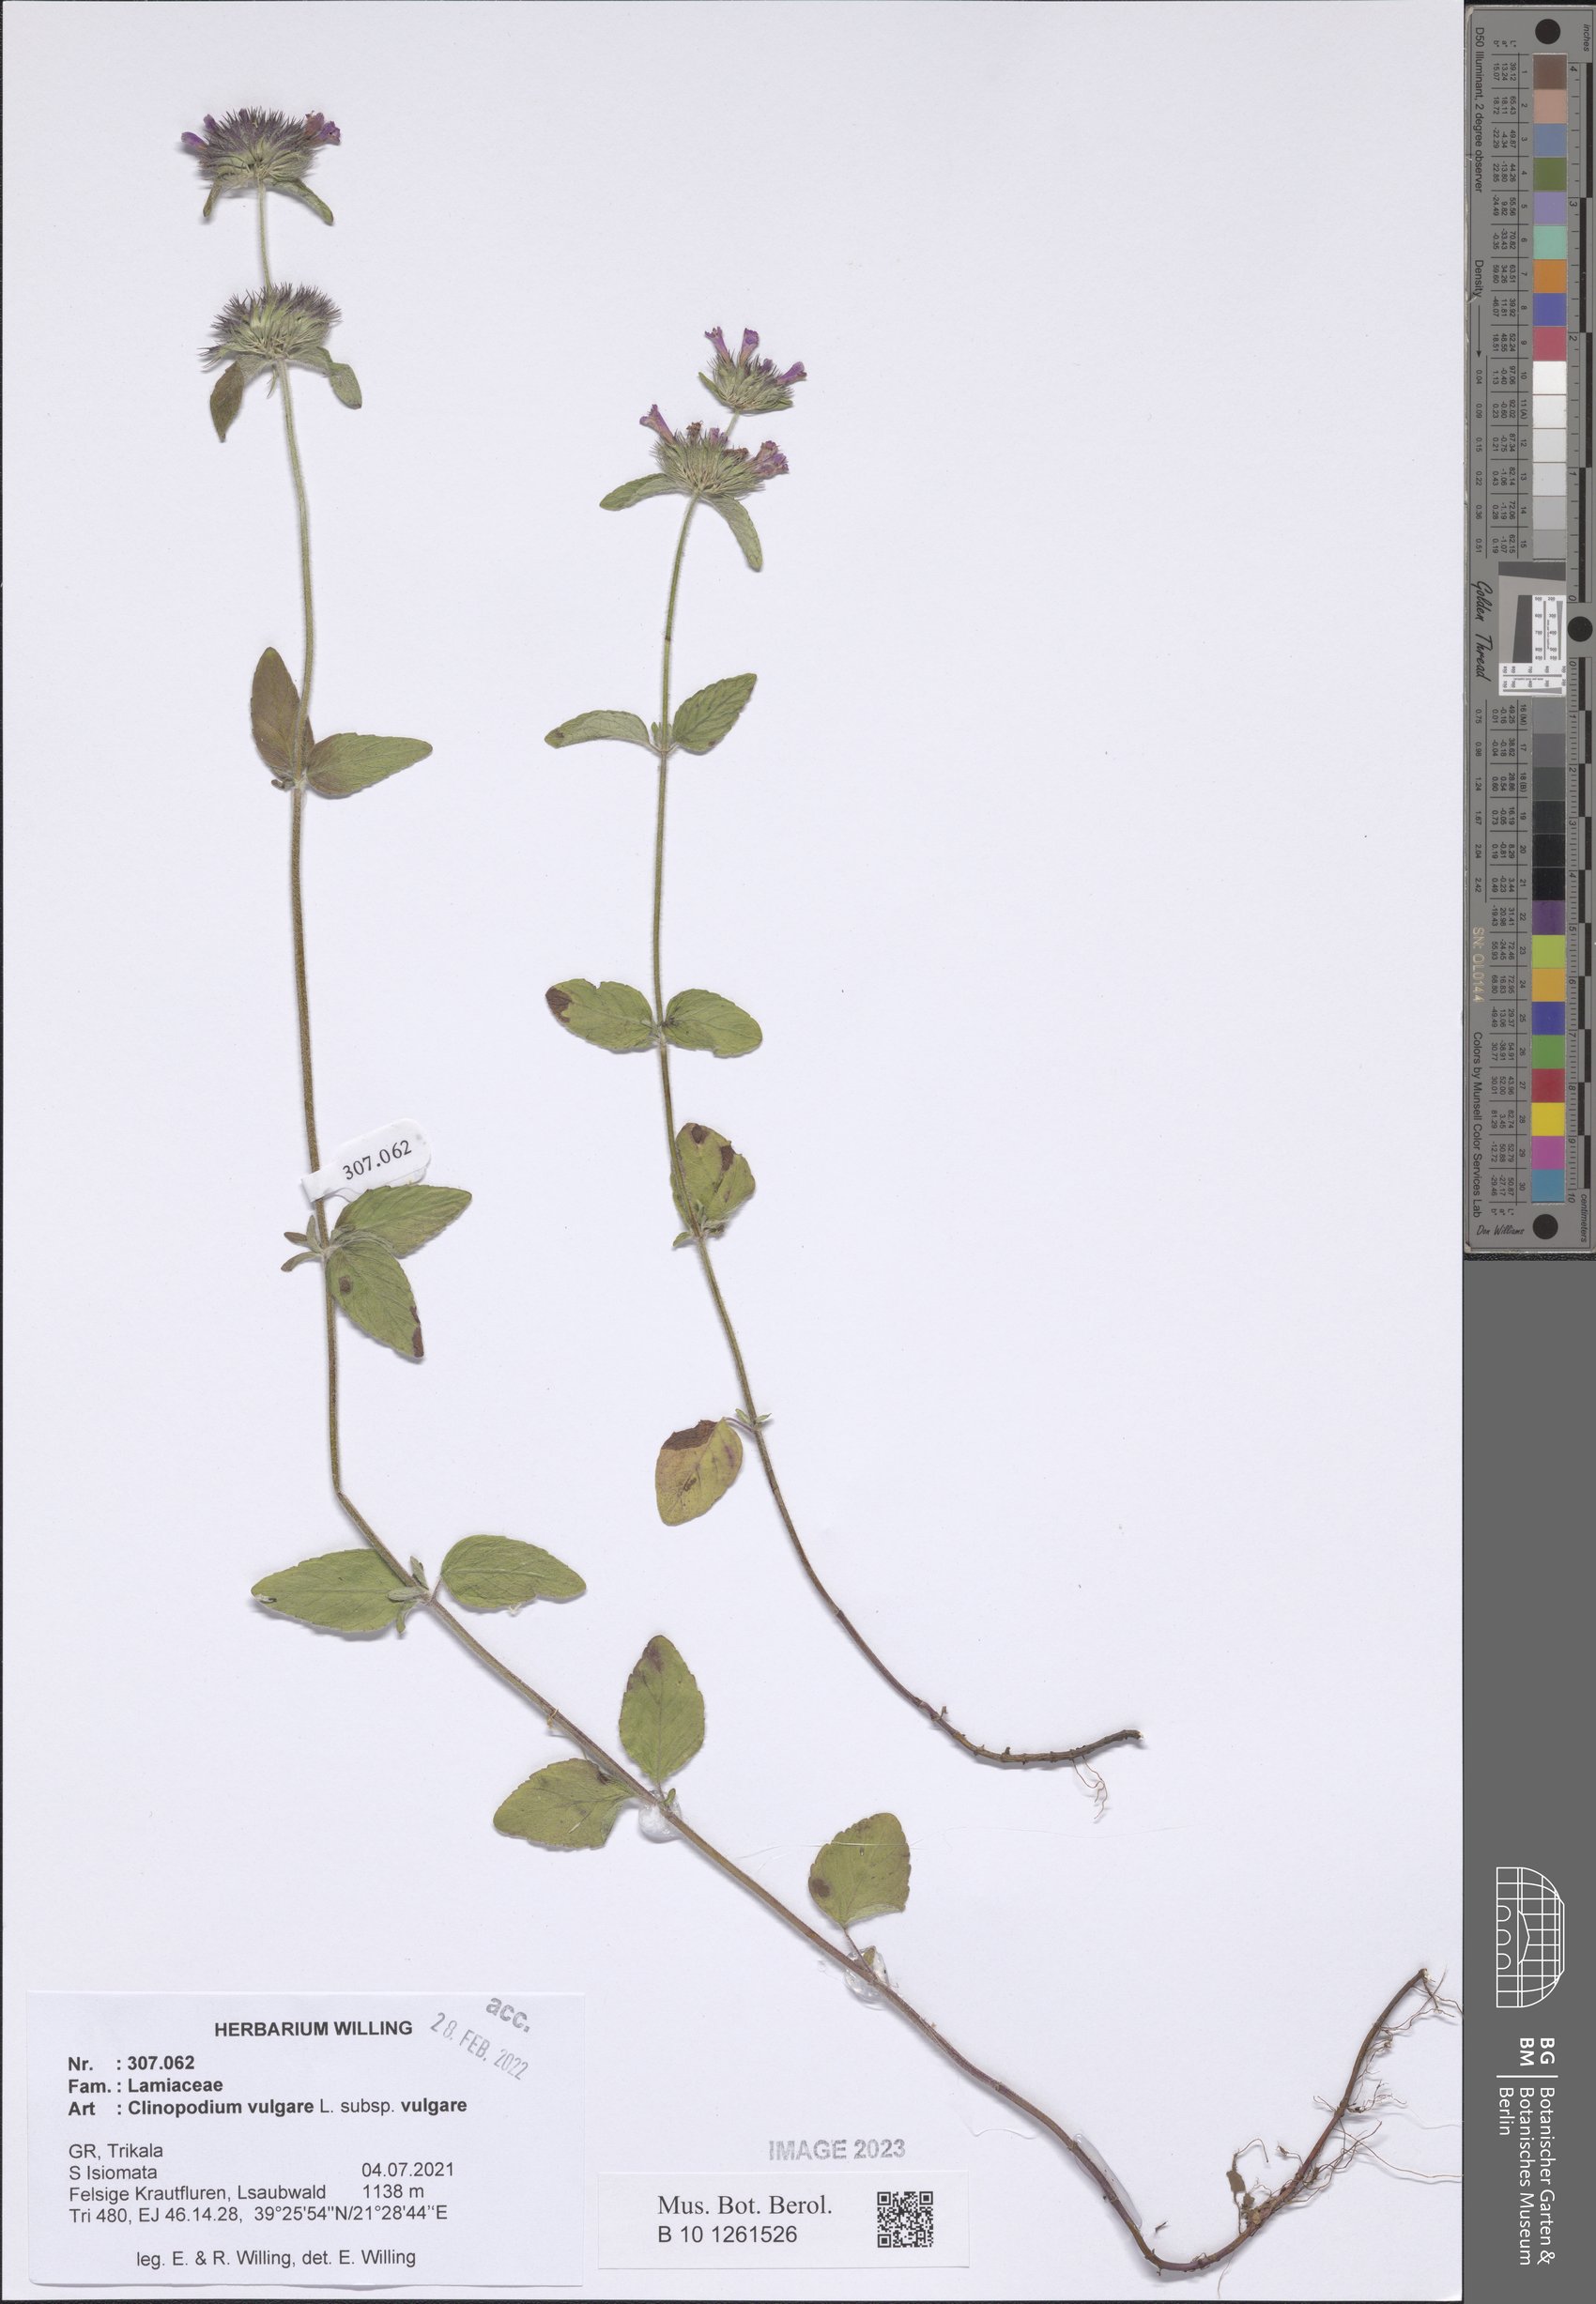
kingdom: Plantae
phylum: Tracheophyta
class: Magnoliopsida
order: Lamiales
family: Lamiaceae
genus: Clinopodium
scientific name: Clinopodium vulgare
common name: Wild basil
